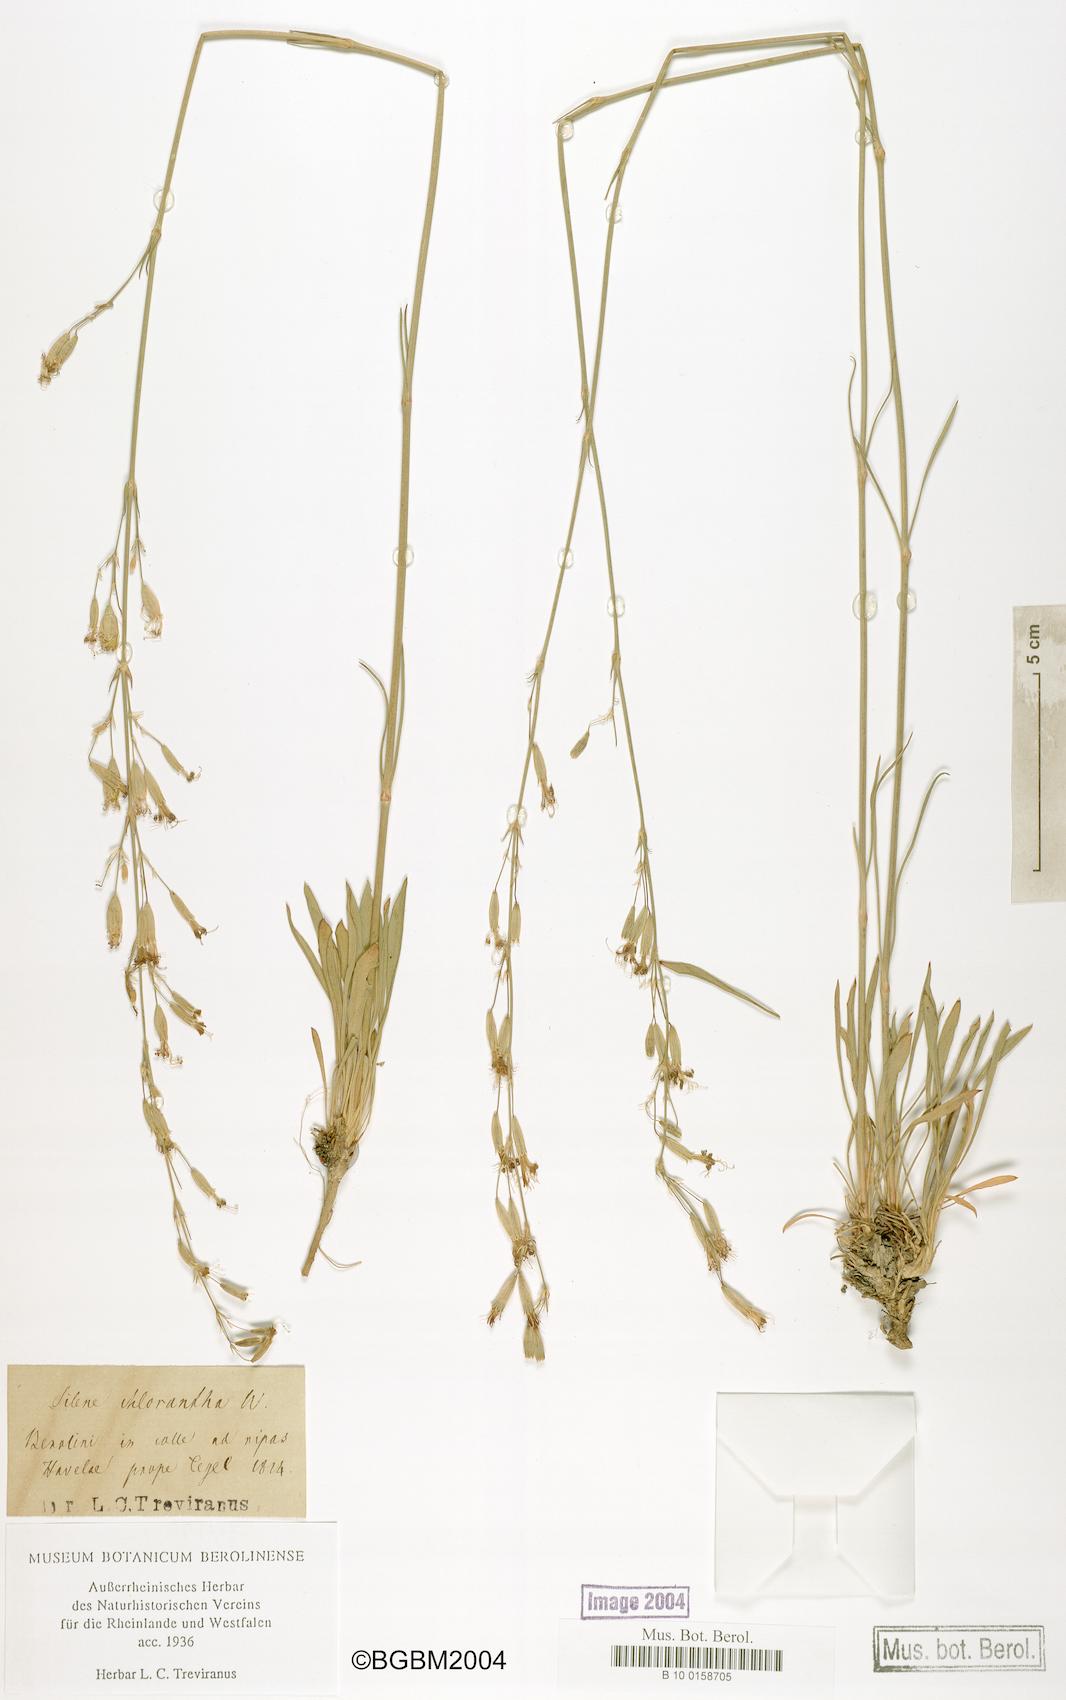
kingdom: Plantae
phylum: Tracheophyta
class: Magnoliopsida
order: Caryophyllales
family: Caryophyllaceae
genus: Silene
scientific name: Silene chlorantha
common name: Yellowgreen catchfly
